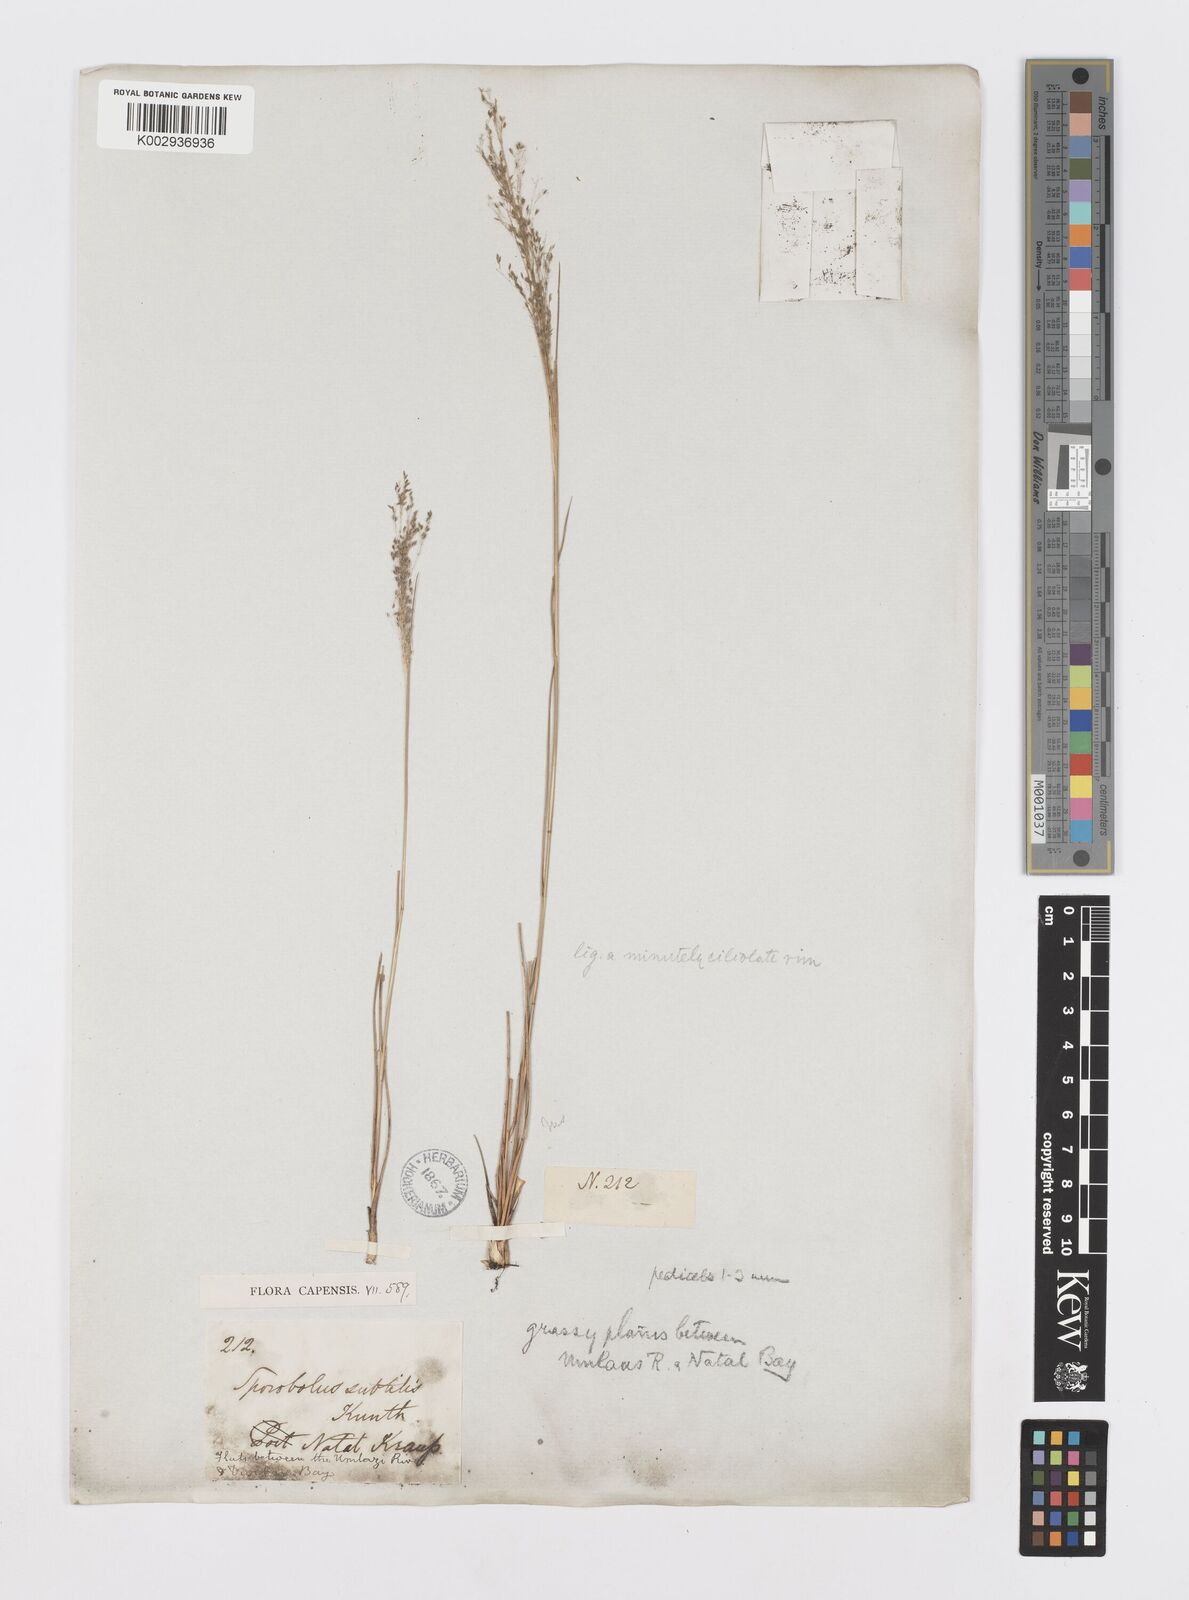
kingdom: Plantae
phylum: Tracheophyta
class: Liliopsida
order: Poales
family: Poaceae
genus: Sporobolus
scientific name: Sporobolus subtilis
